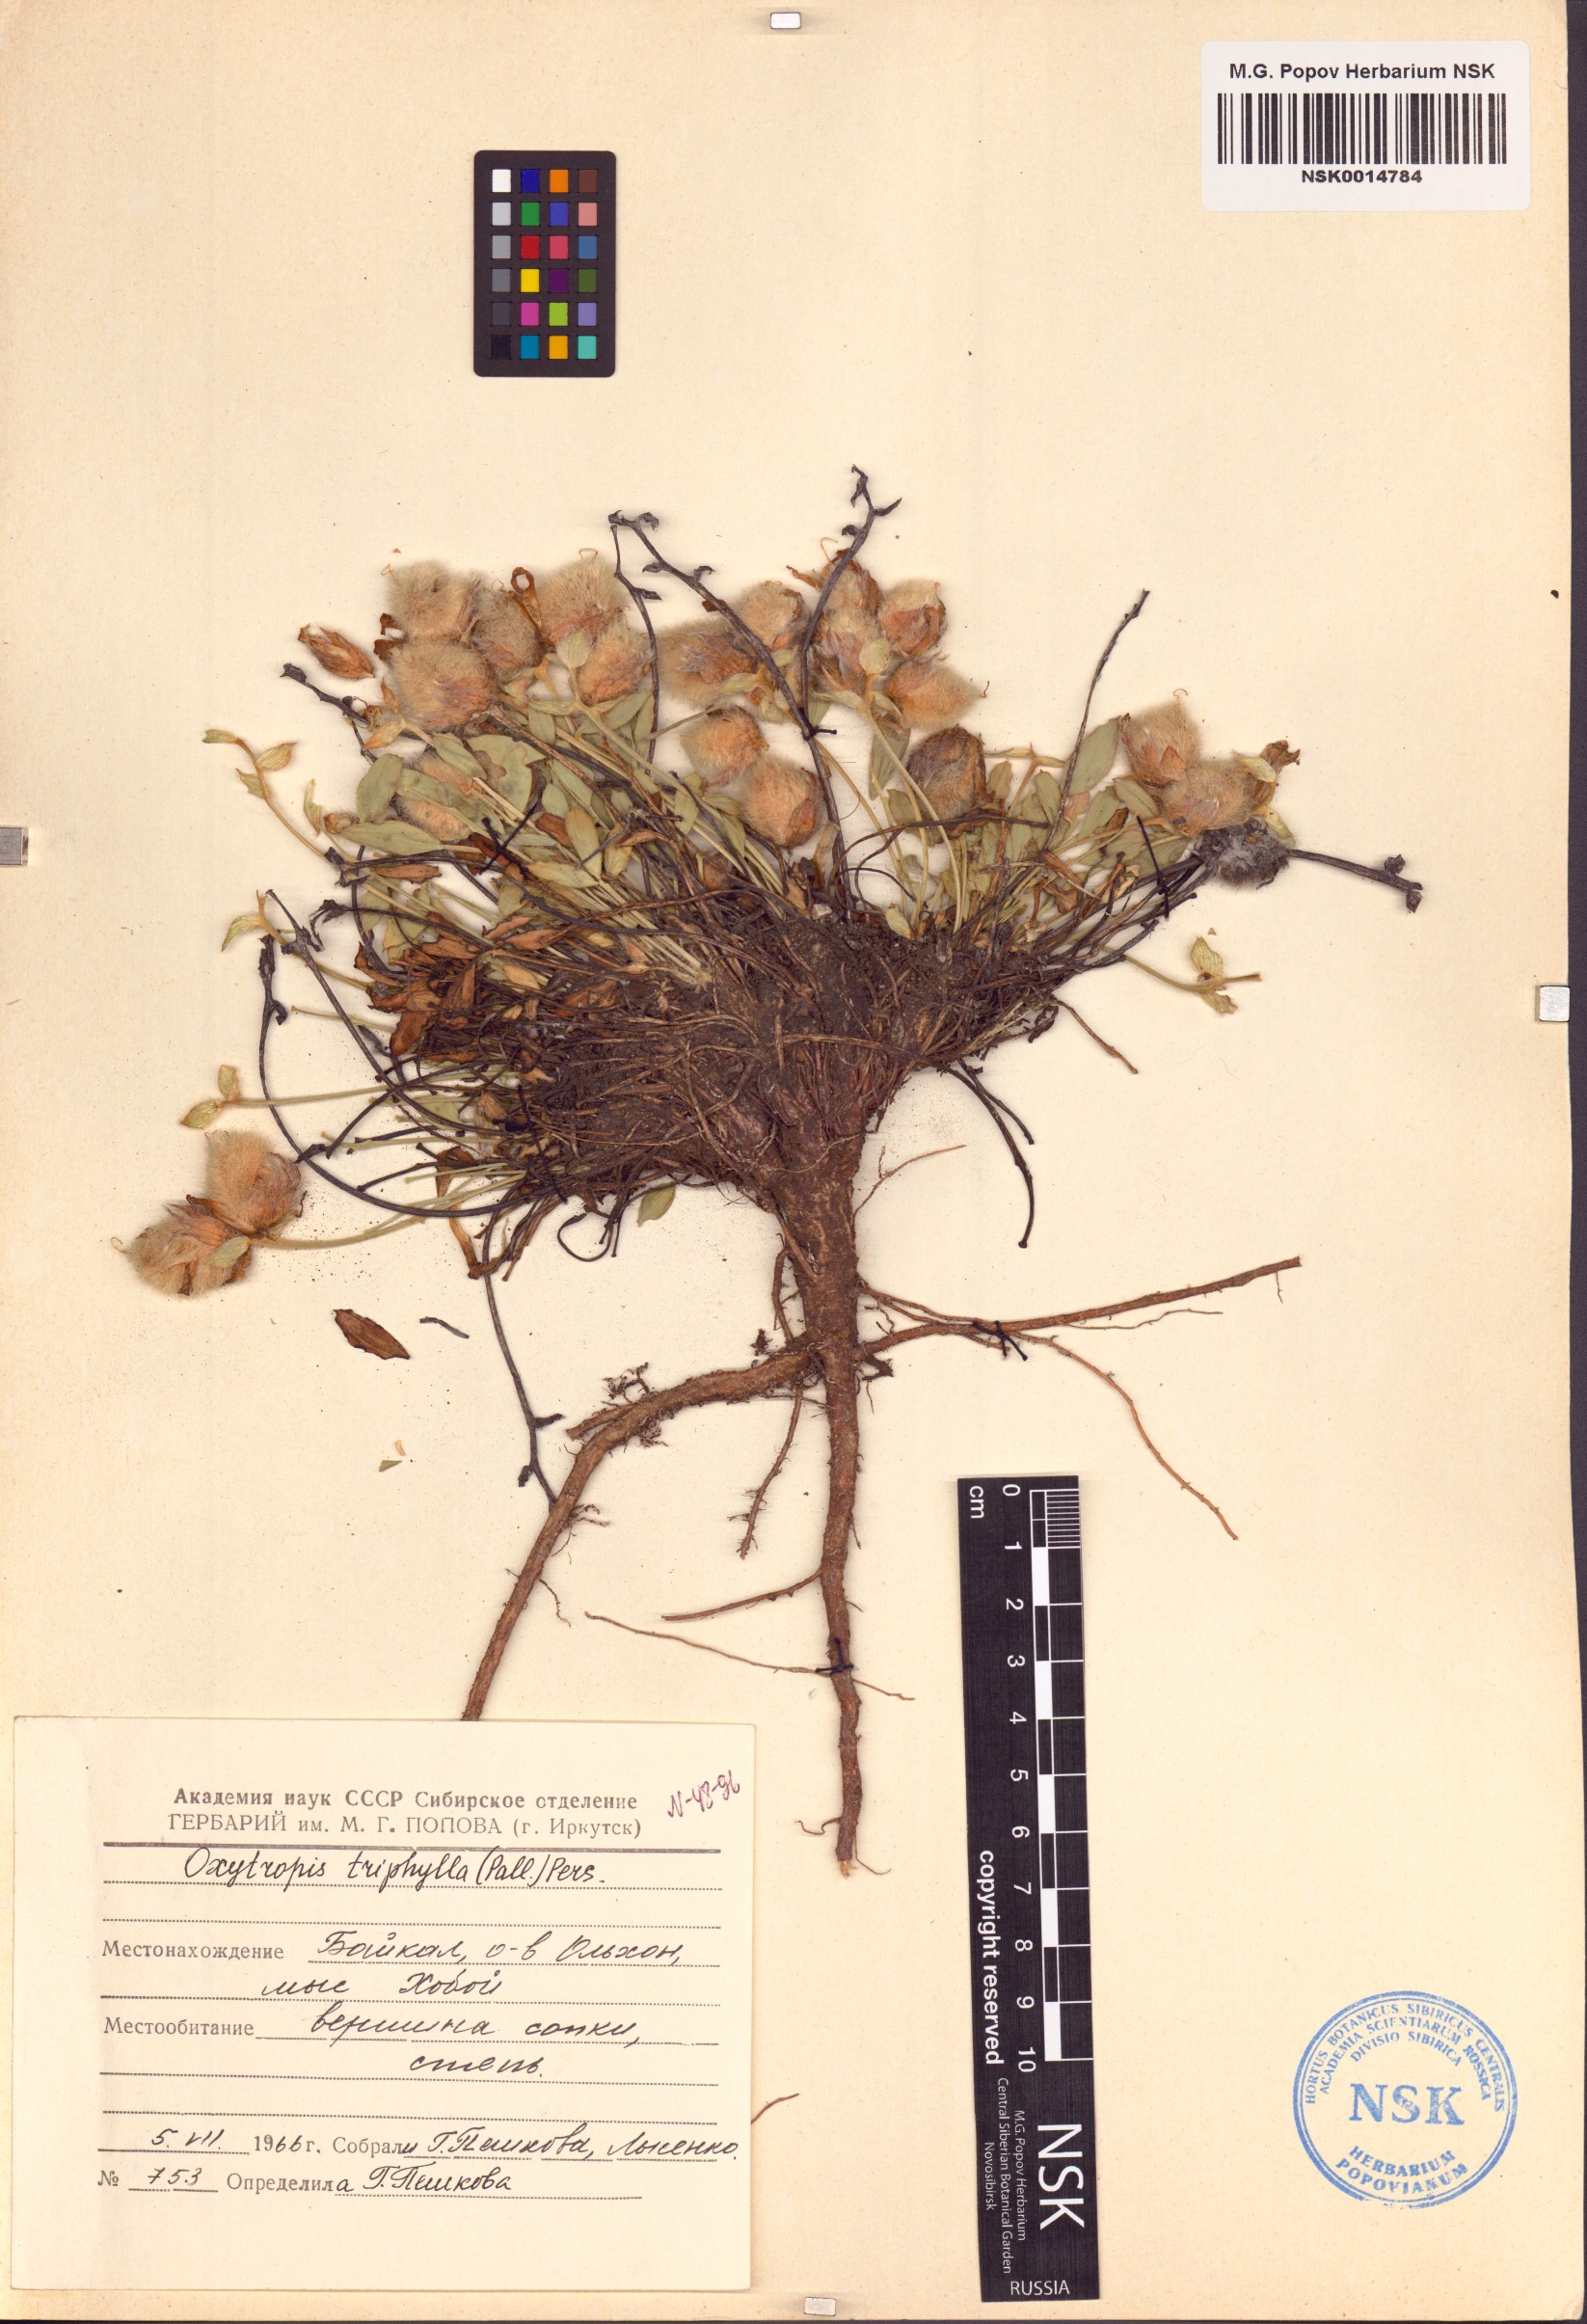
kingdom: Plantae
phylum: Tracheophyta
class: Magnoliopsida
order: Fabales
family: Fabaceae
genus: Oxytropis
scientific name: Oxytropis triphylla
